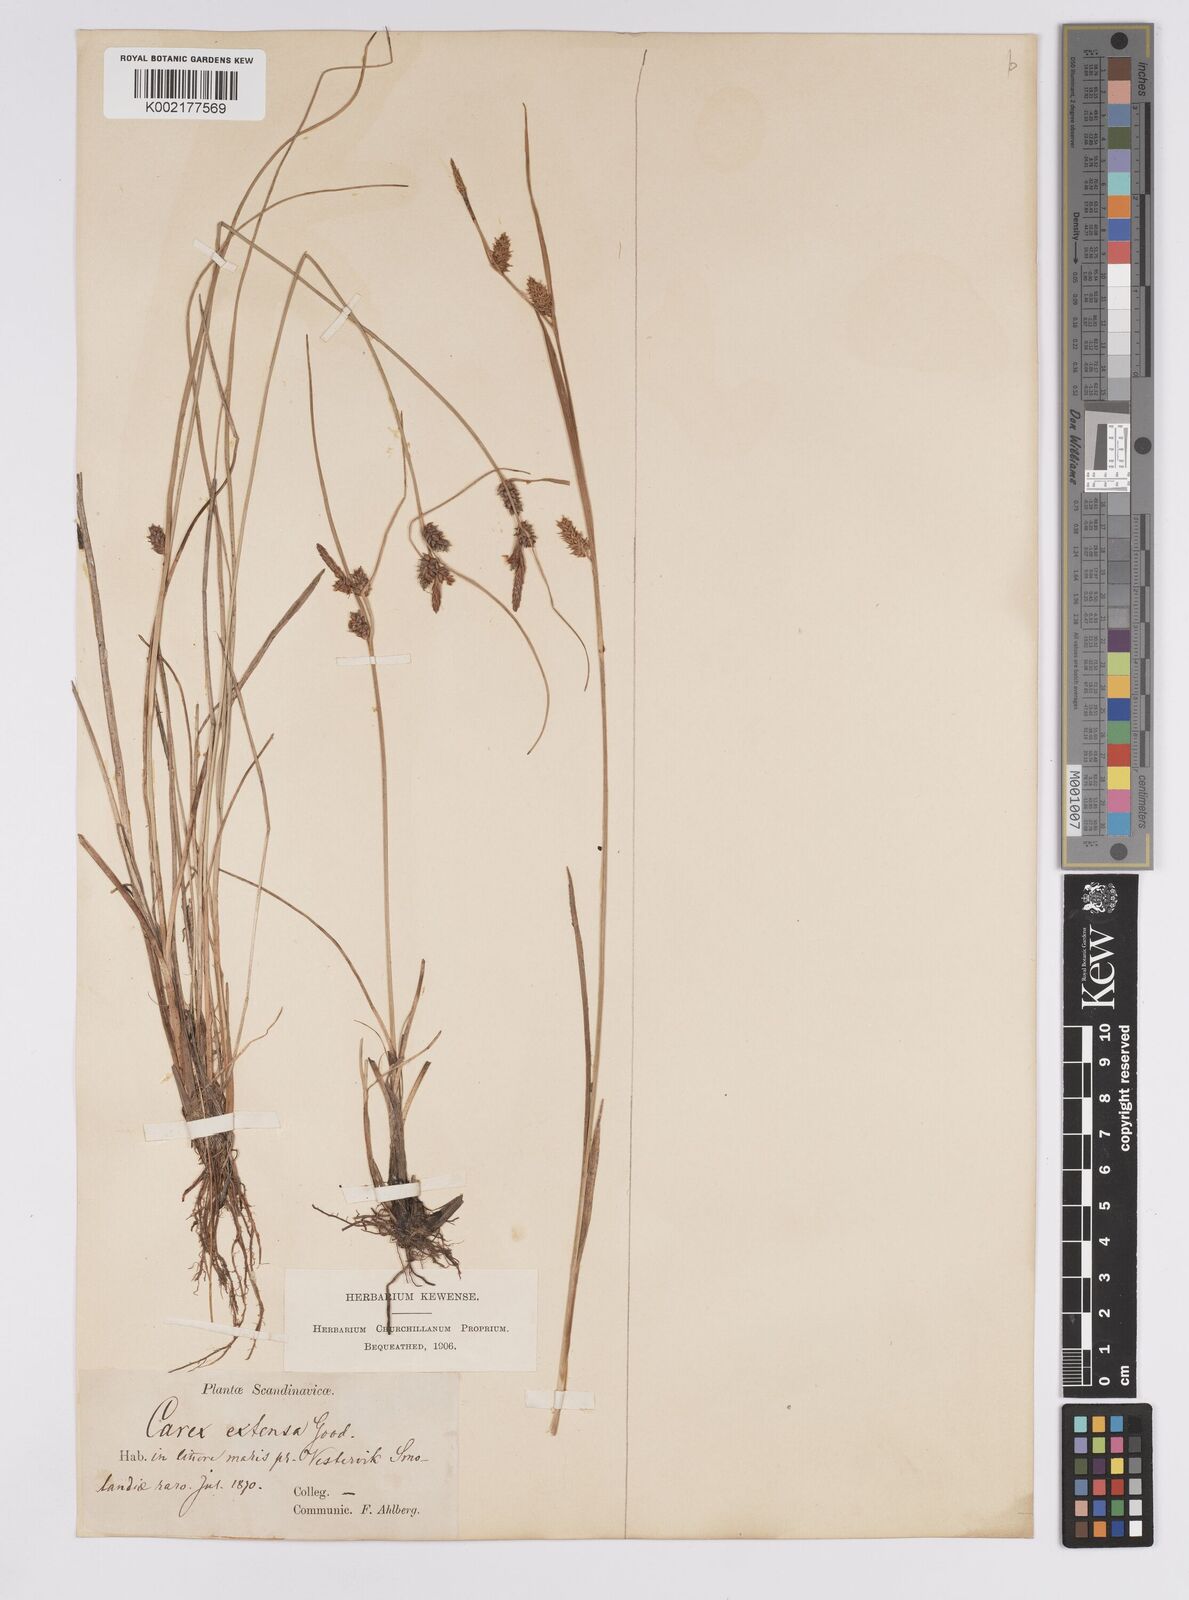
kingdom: Plantae
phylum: Tracheophyta
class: Liliopsida
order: Poales
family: Cyperaceae
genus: Carex
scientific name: Carex extensa
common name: Long-bracted sedge
